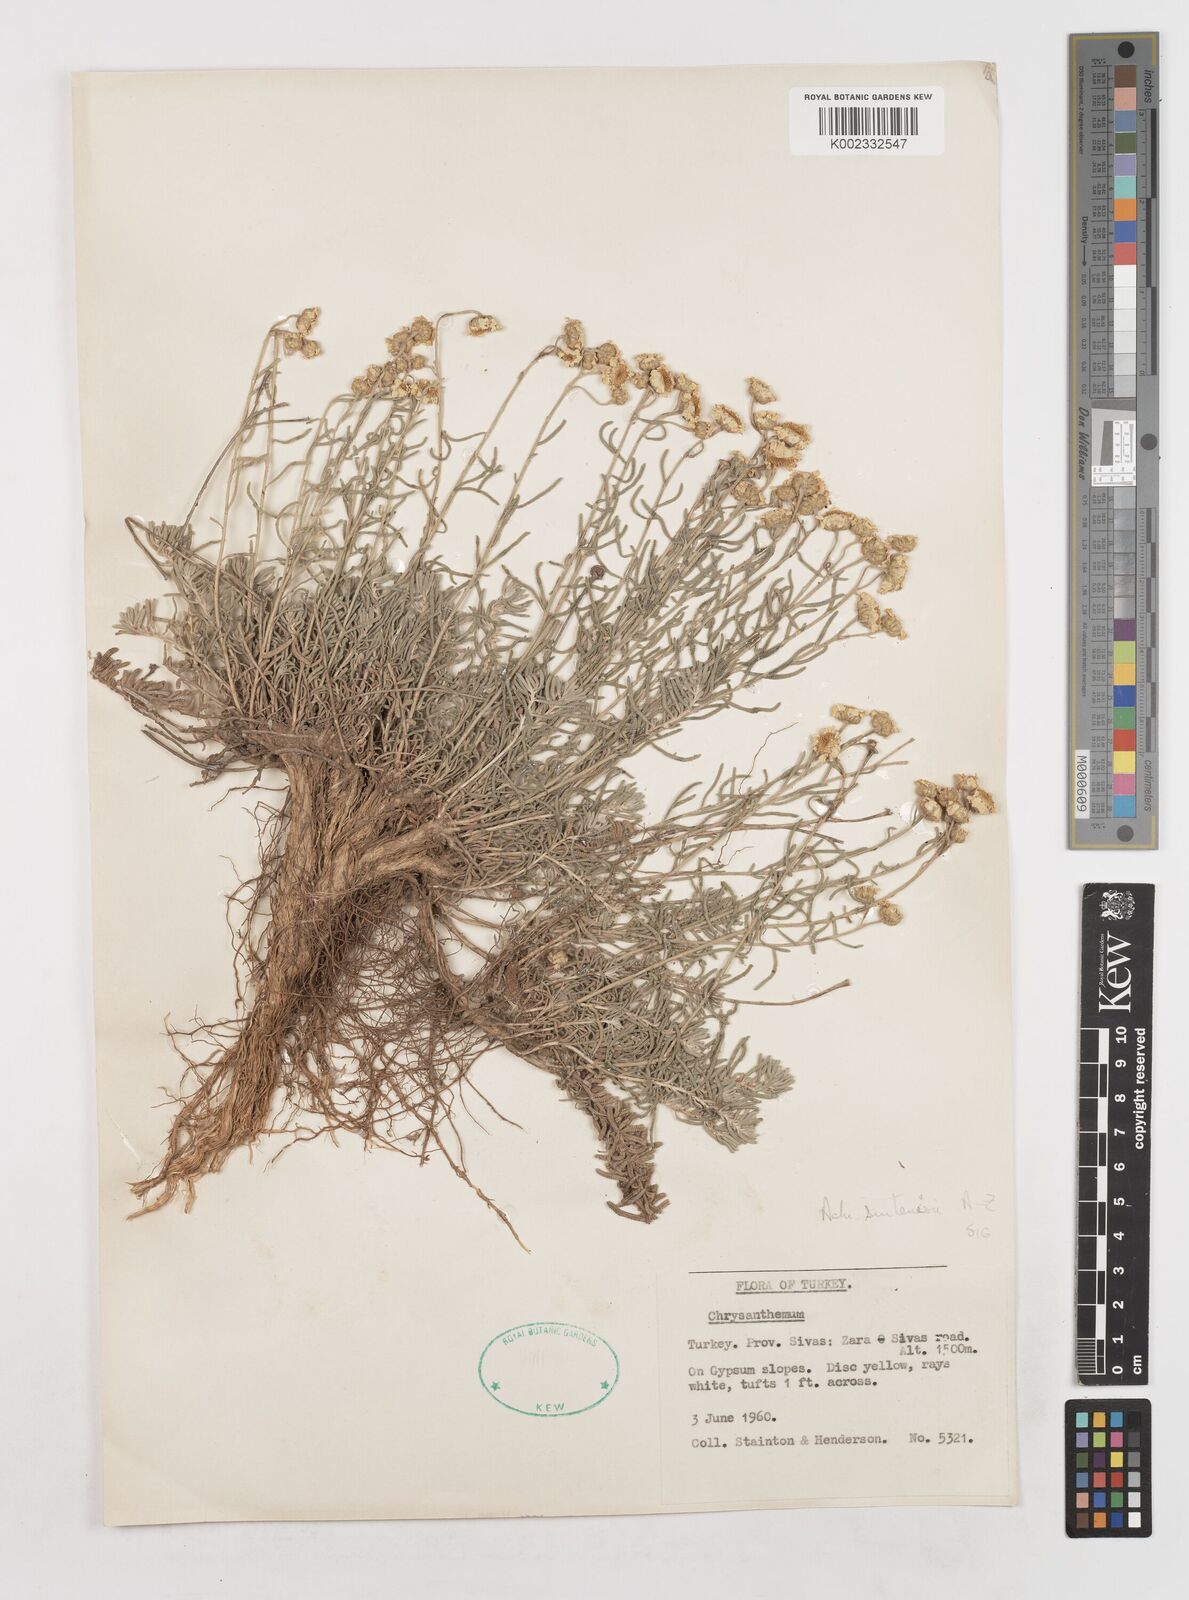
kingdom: Plantae
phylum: Tracheophyta
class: Magnoliopsida
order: Asterales
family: Asteraceae
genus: Achillea
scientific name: Achillea sintenisii
